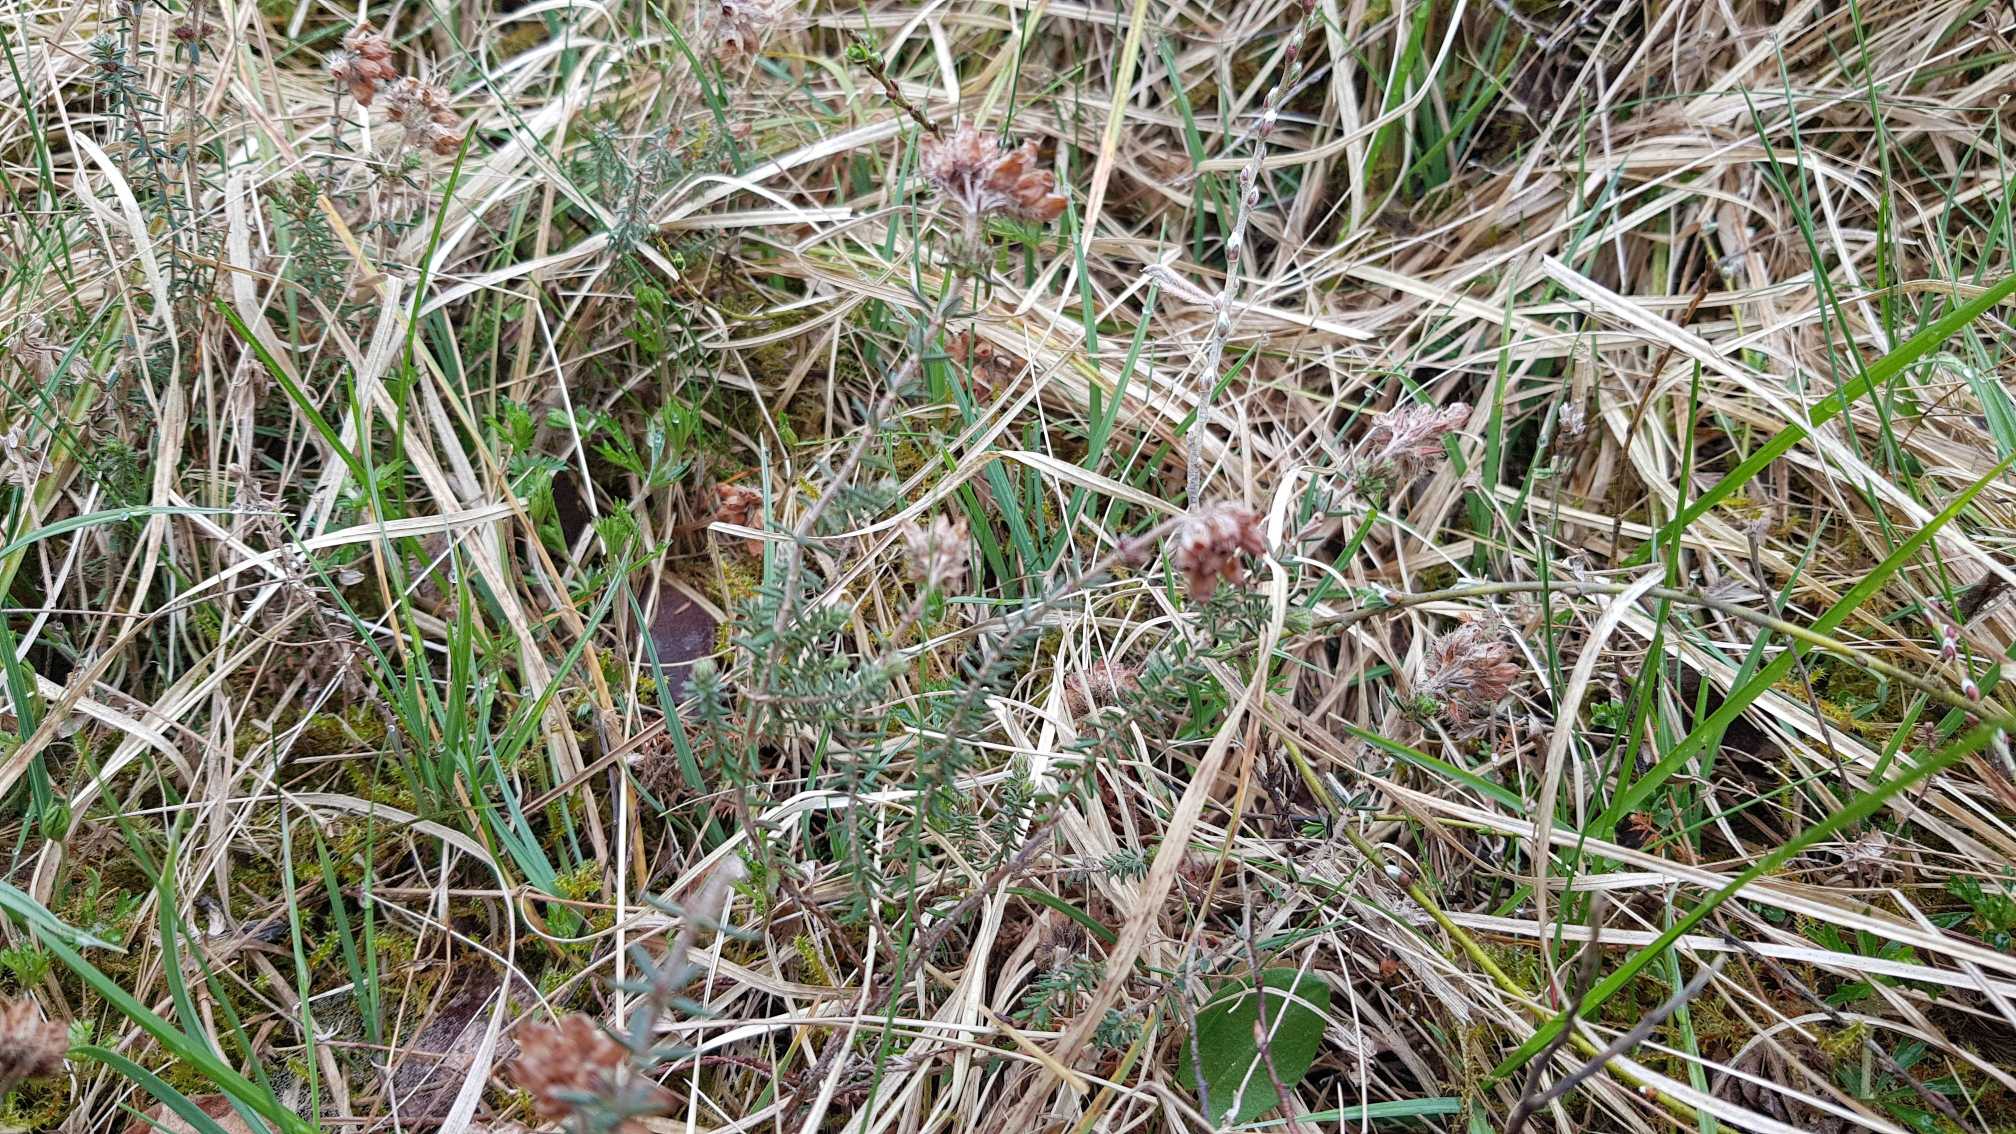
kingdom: Plantae
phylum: Tracheophyta
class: Magnoliopsida
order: Ericales
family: Ericaceae
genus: Erica
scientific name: Erica tetralix
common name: Klokkelyng
